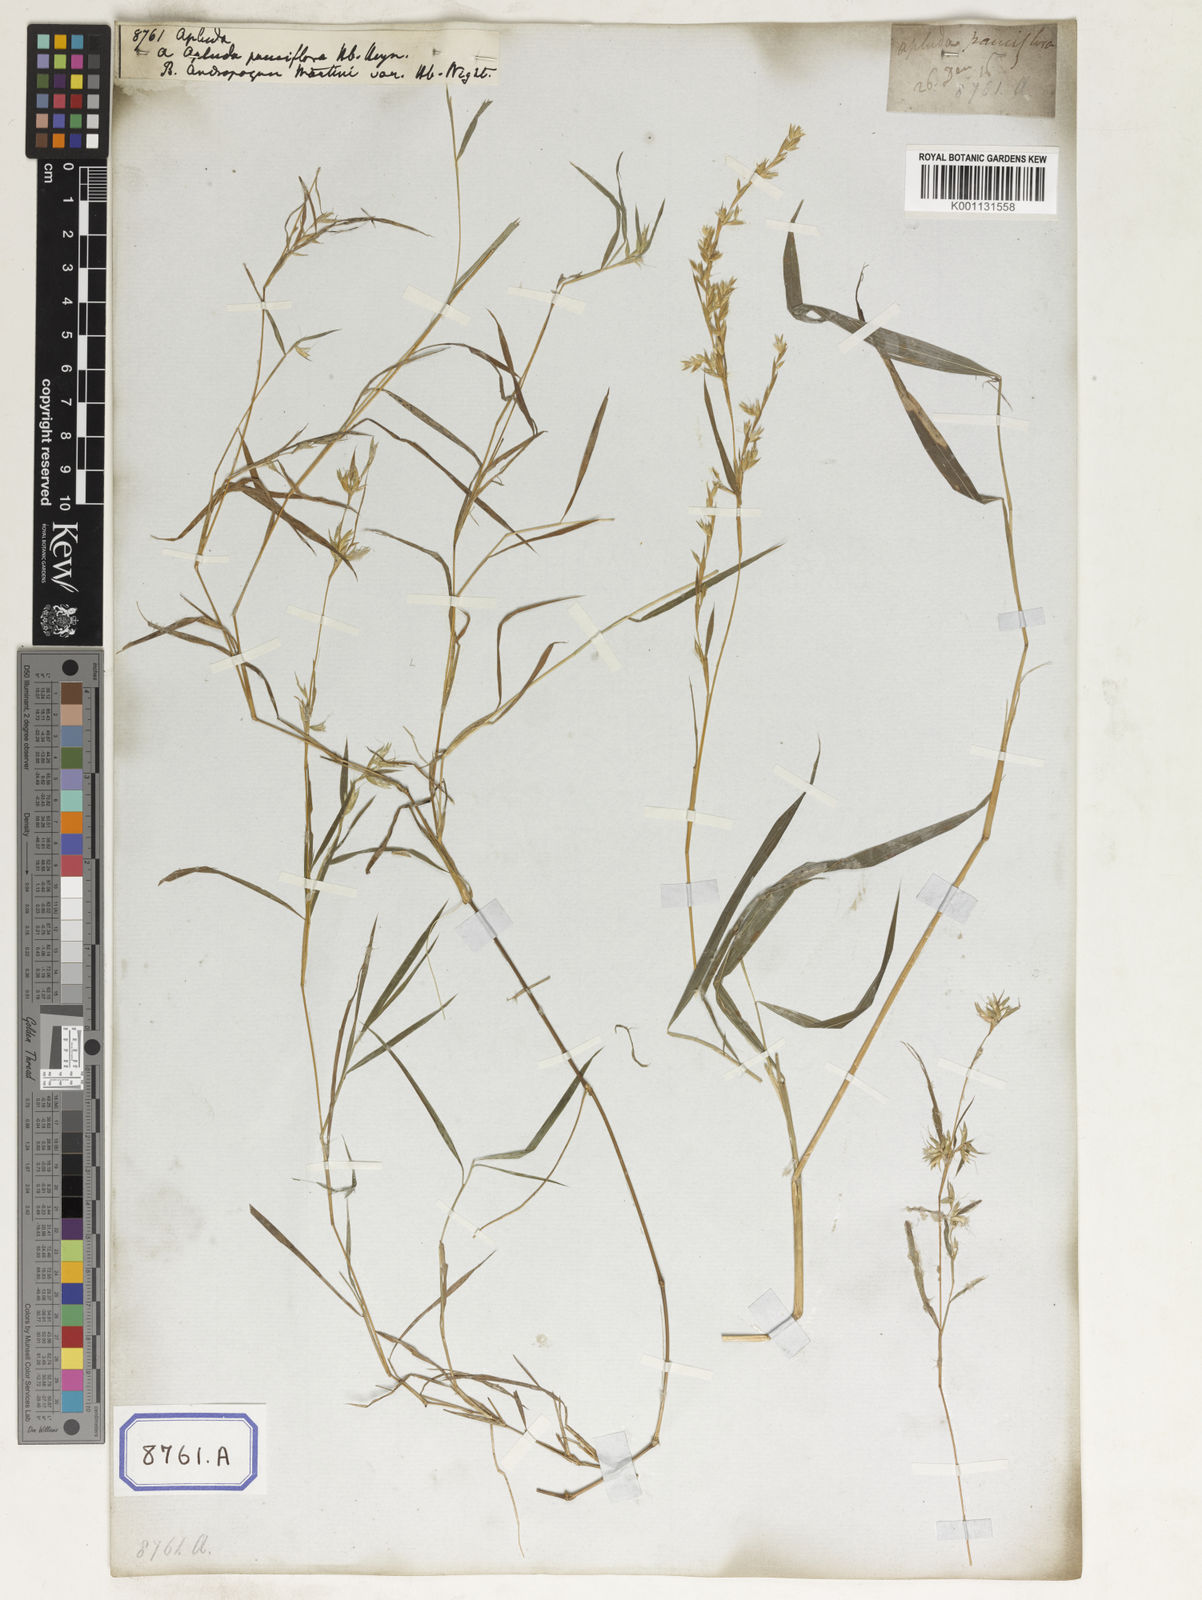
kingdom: Plantae
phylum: Tracheophyta
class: Liliopsida
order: Poales
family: Poaceae
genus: Apluda
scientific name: Apluda
